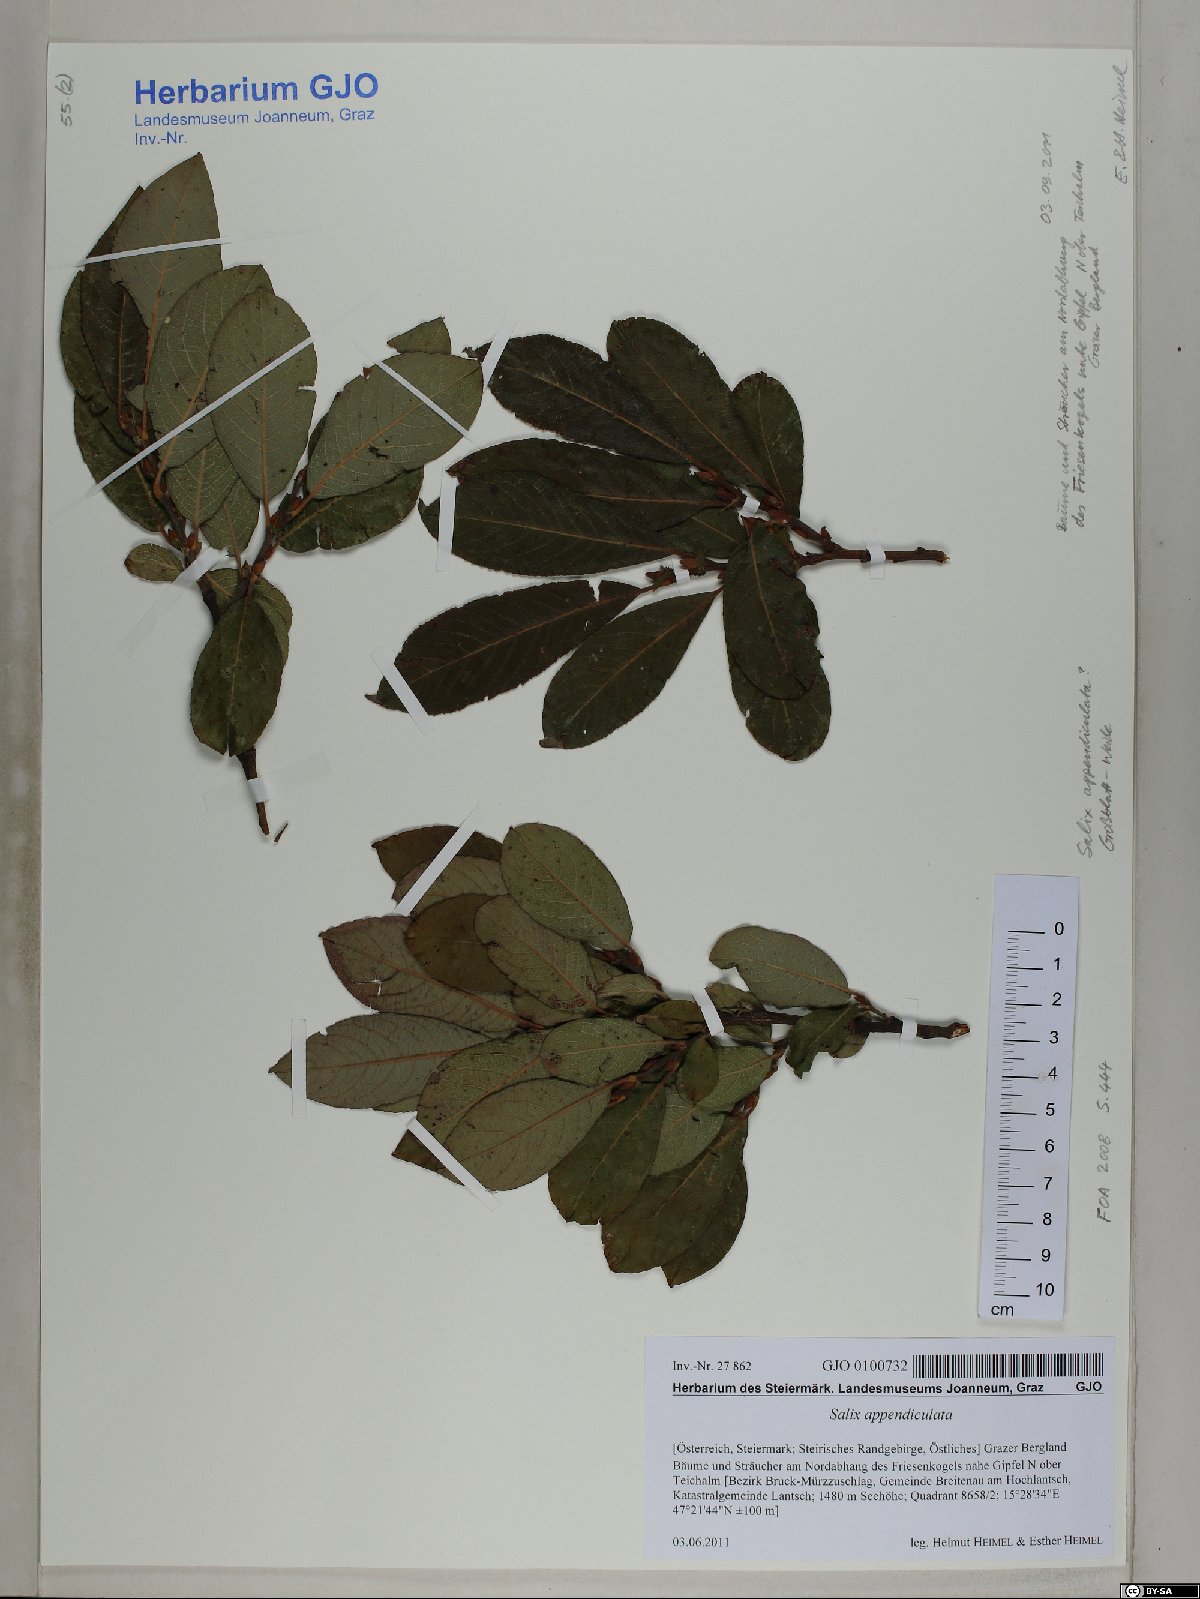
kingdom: Plantae
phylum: Tracheophyta
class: Magnoliopsida
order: Malpighiales
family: Salicaceae
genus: Salix
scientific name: Salix appendiculata
